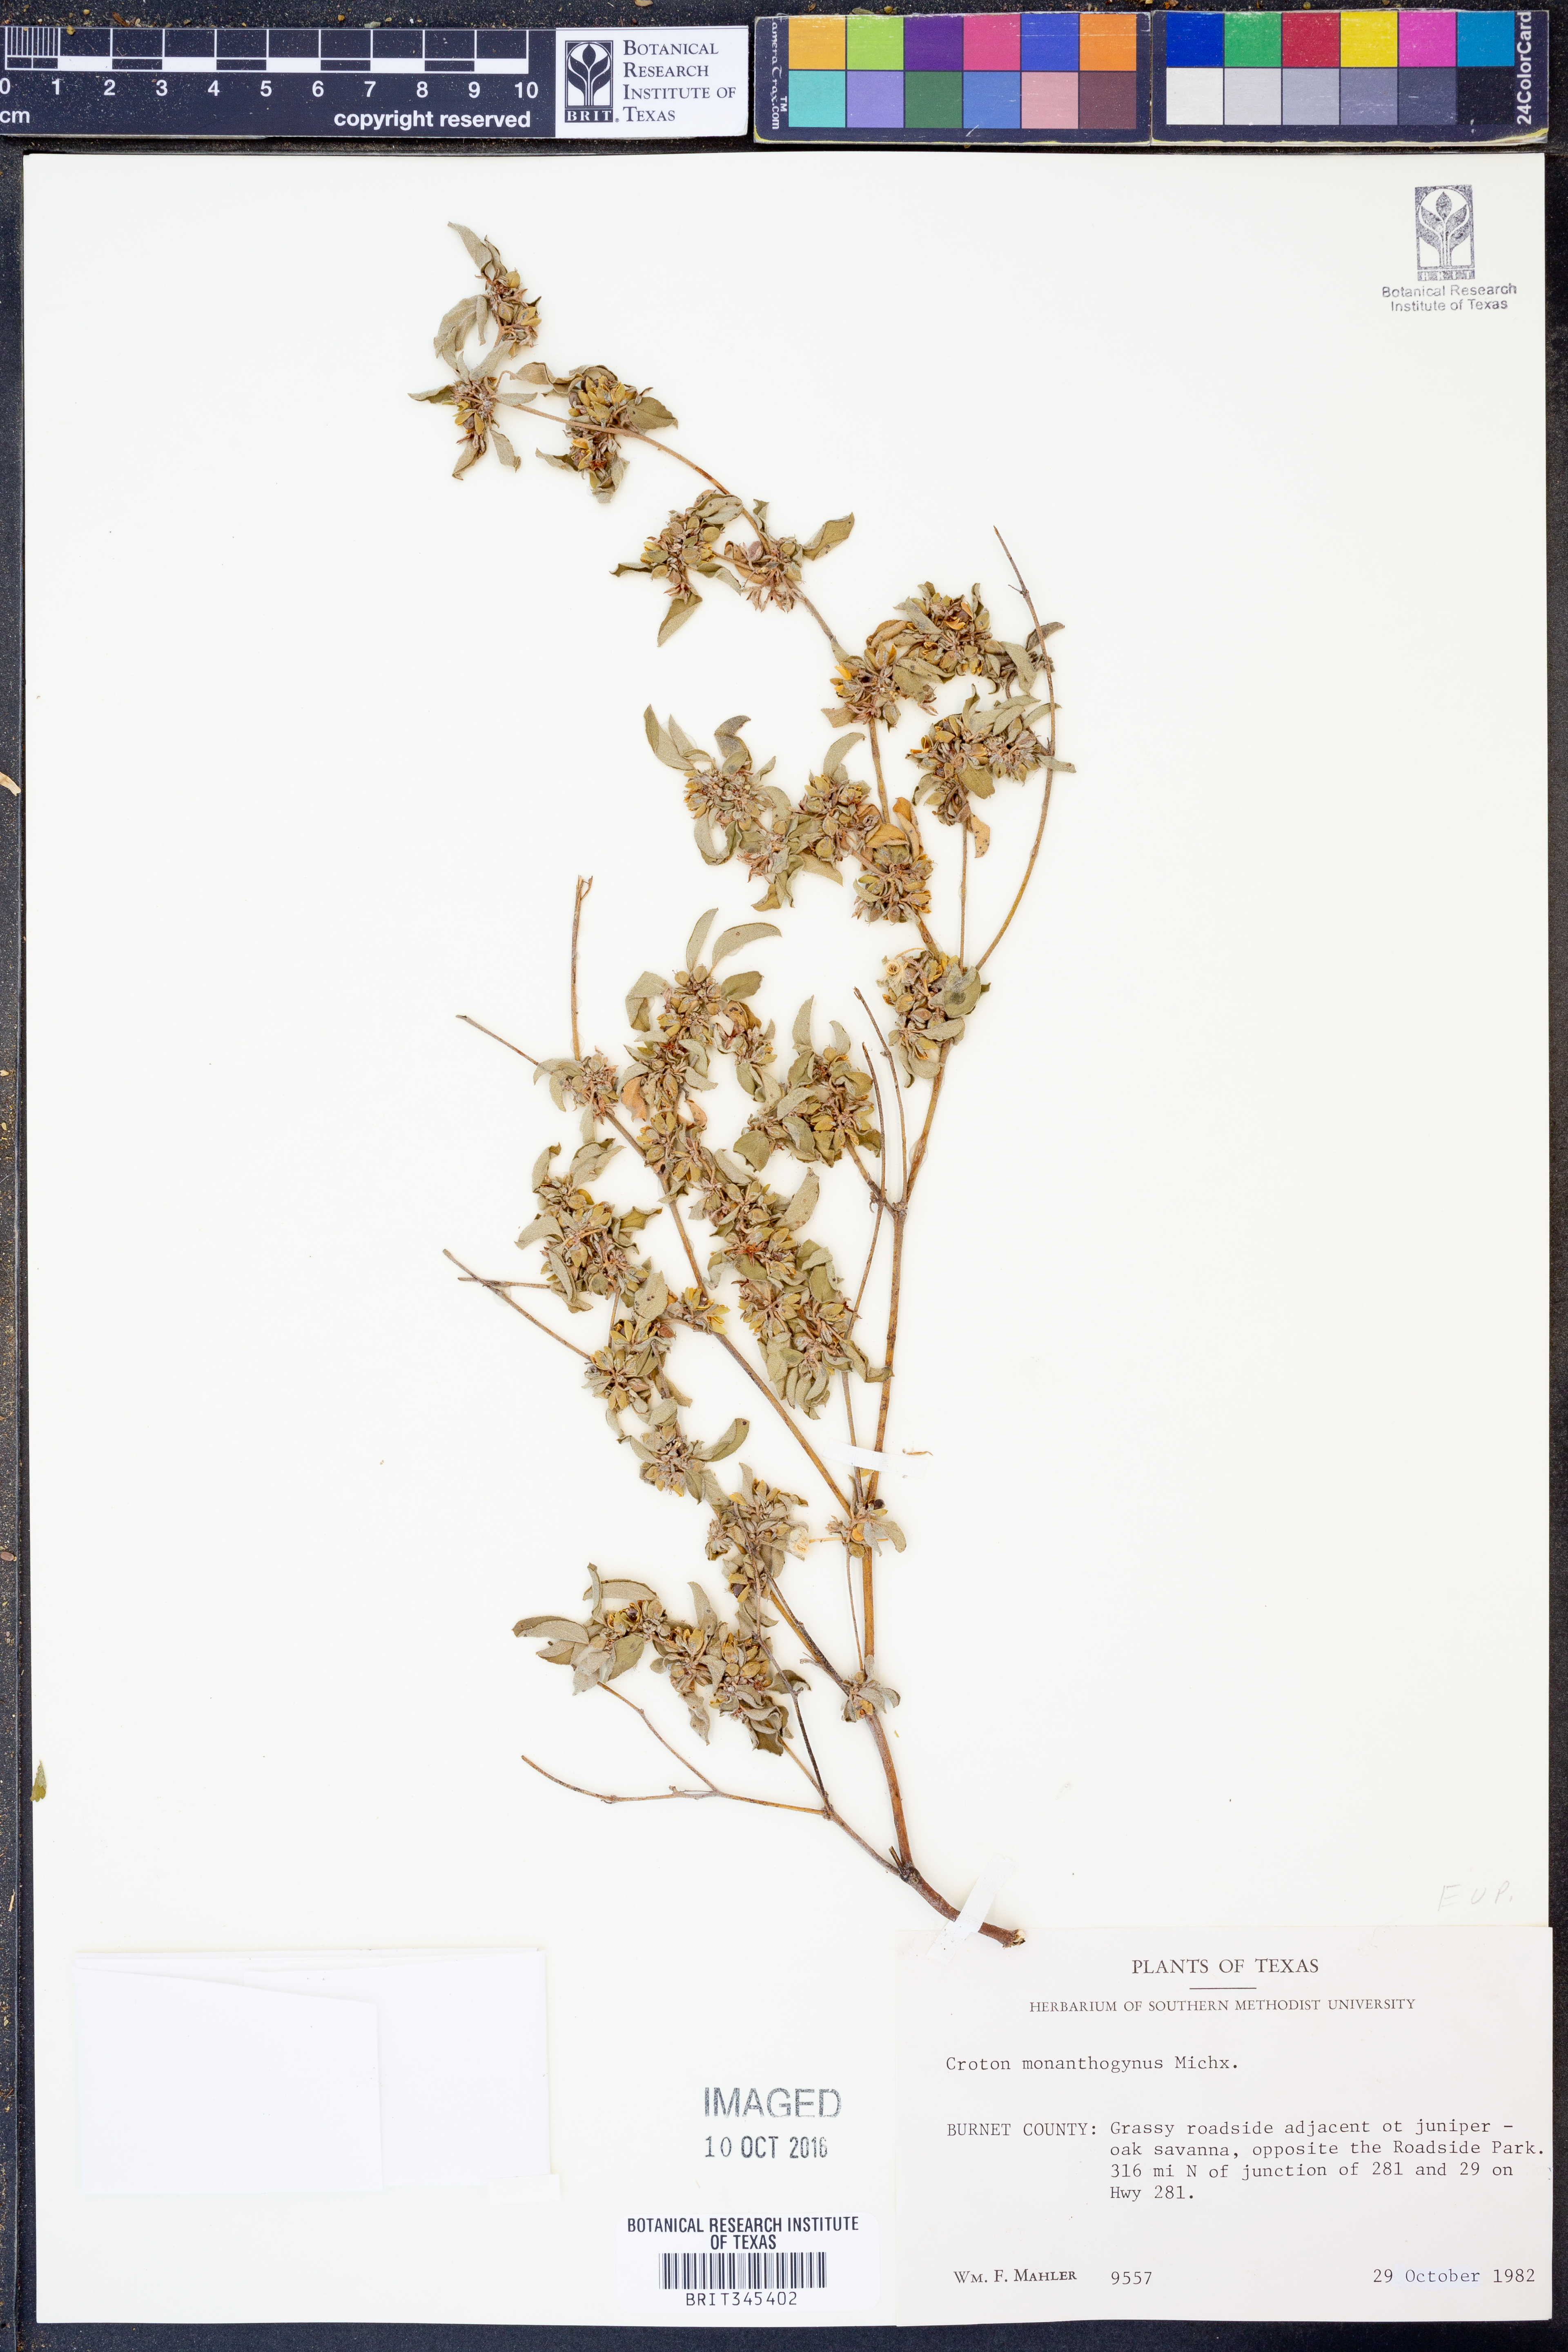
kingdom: Plantae
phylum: Tracheophyta
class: Magnoliopsida
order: Malpighiales
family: Euphorbiaceae
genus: Croton
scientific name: Croton monanthogynus
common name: One-seed croton
